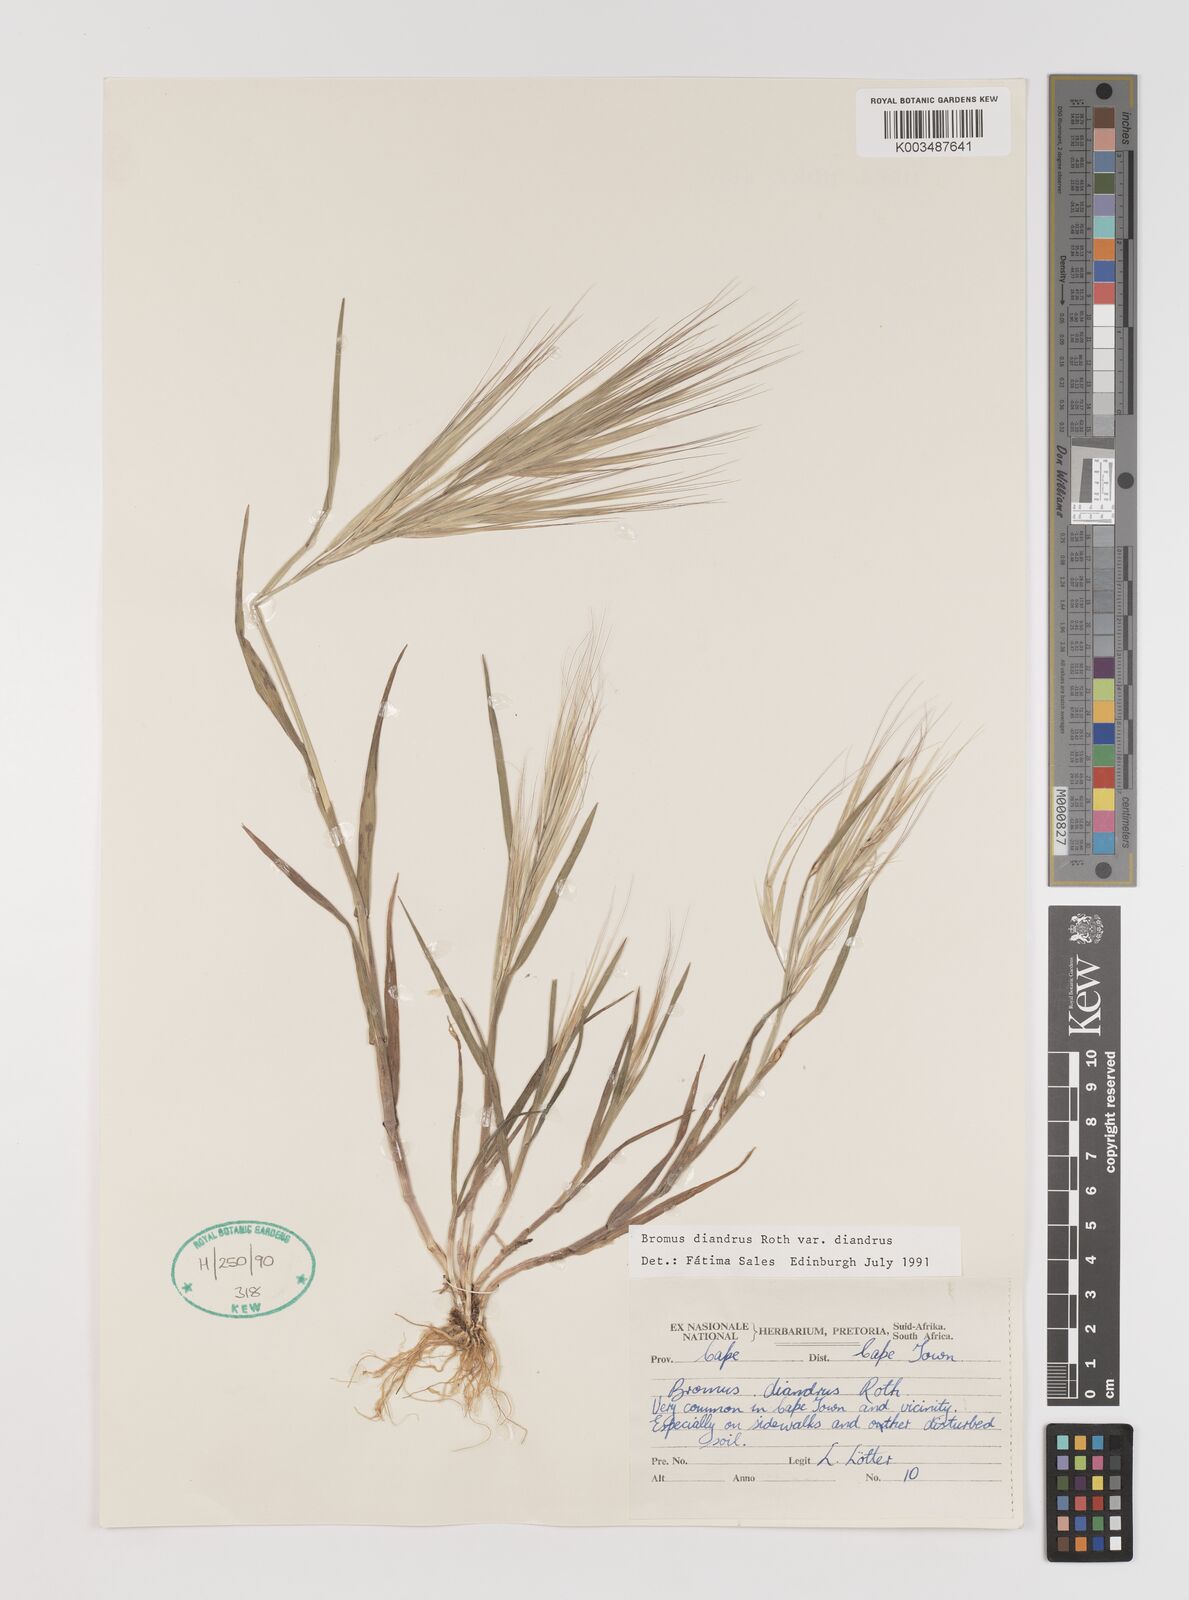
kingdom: Plantae
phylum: Tracheophyta
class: Liliopsida
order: Poales
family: Poaceae
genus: Bromus
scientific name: Bromus diandrus
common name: Ripgut brome
